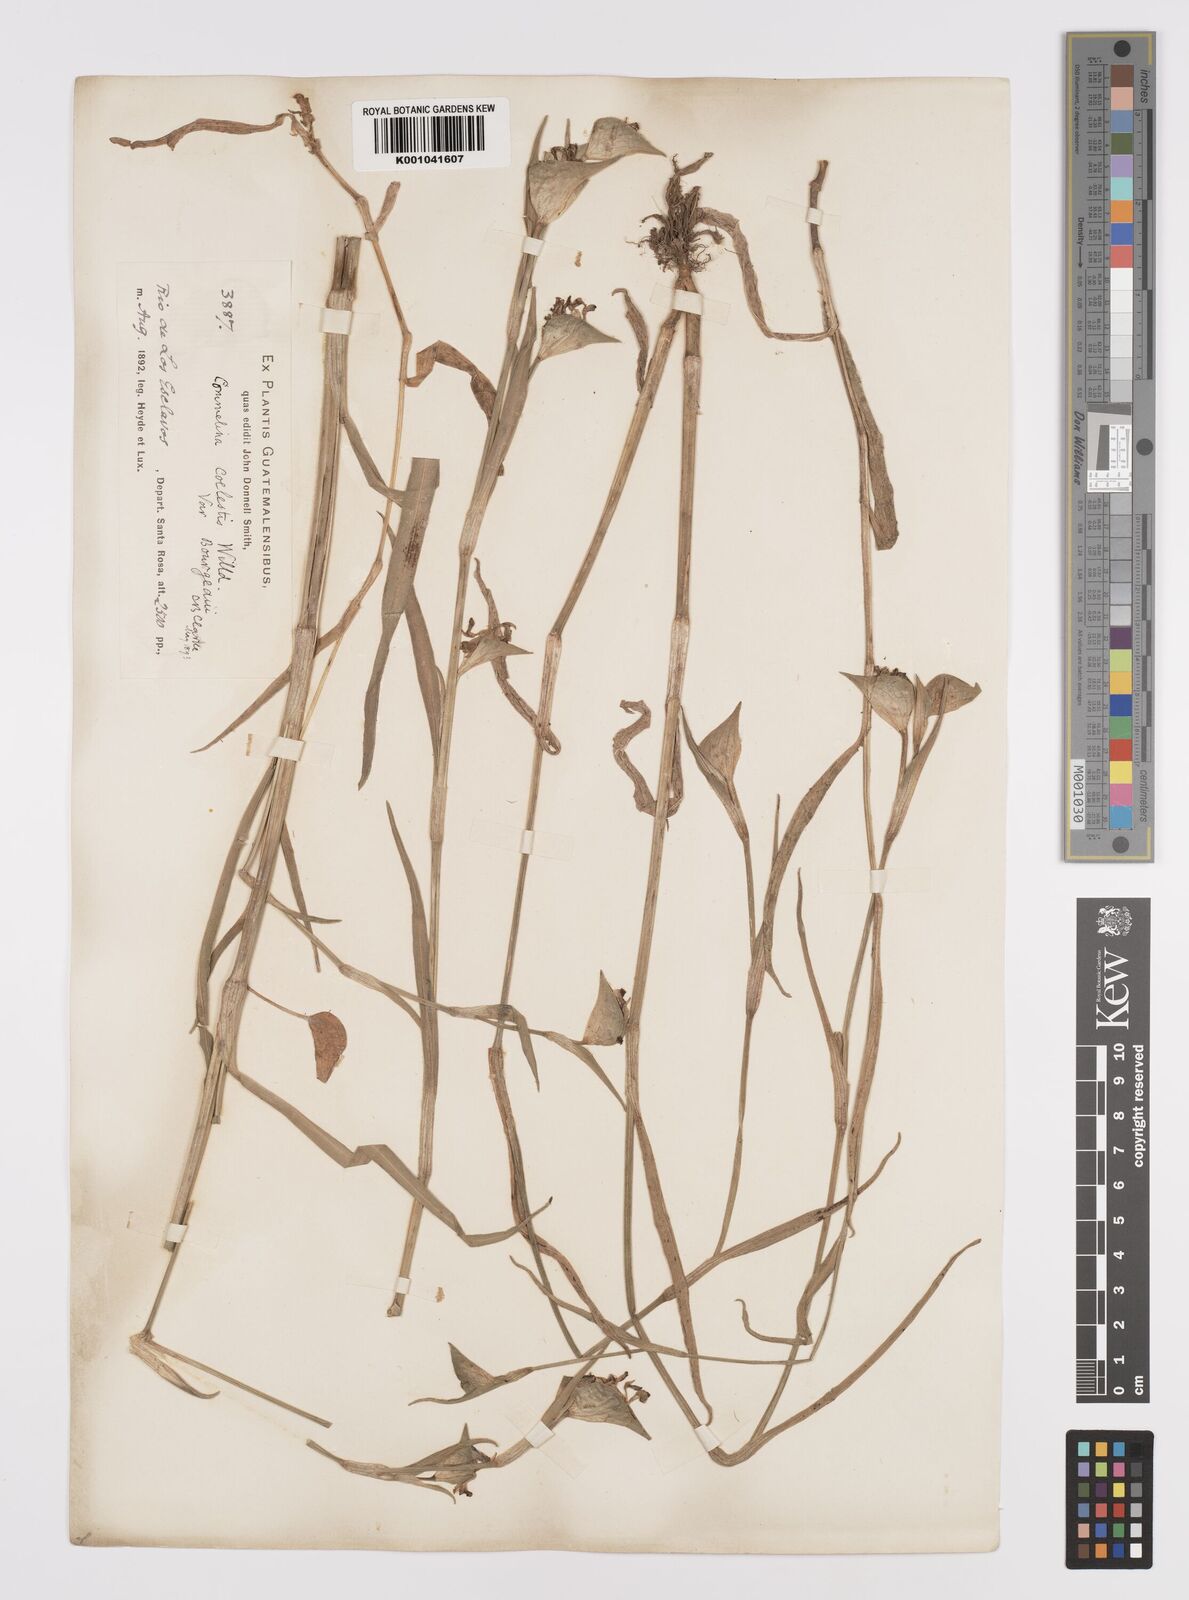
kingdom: Plantae
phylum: Tracheophyta
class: Liliopsida
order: Commelinales
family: Commelinaceae
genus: Commelina
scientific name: Commelina standleyi
